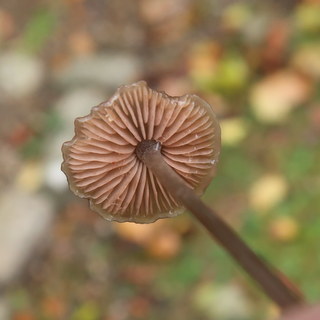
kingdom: Fungi
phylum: Basidiomycota
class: Agaricomycetes
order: Agaricales
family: Entolomataceae
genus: Entoloma
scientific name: Entoloma
